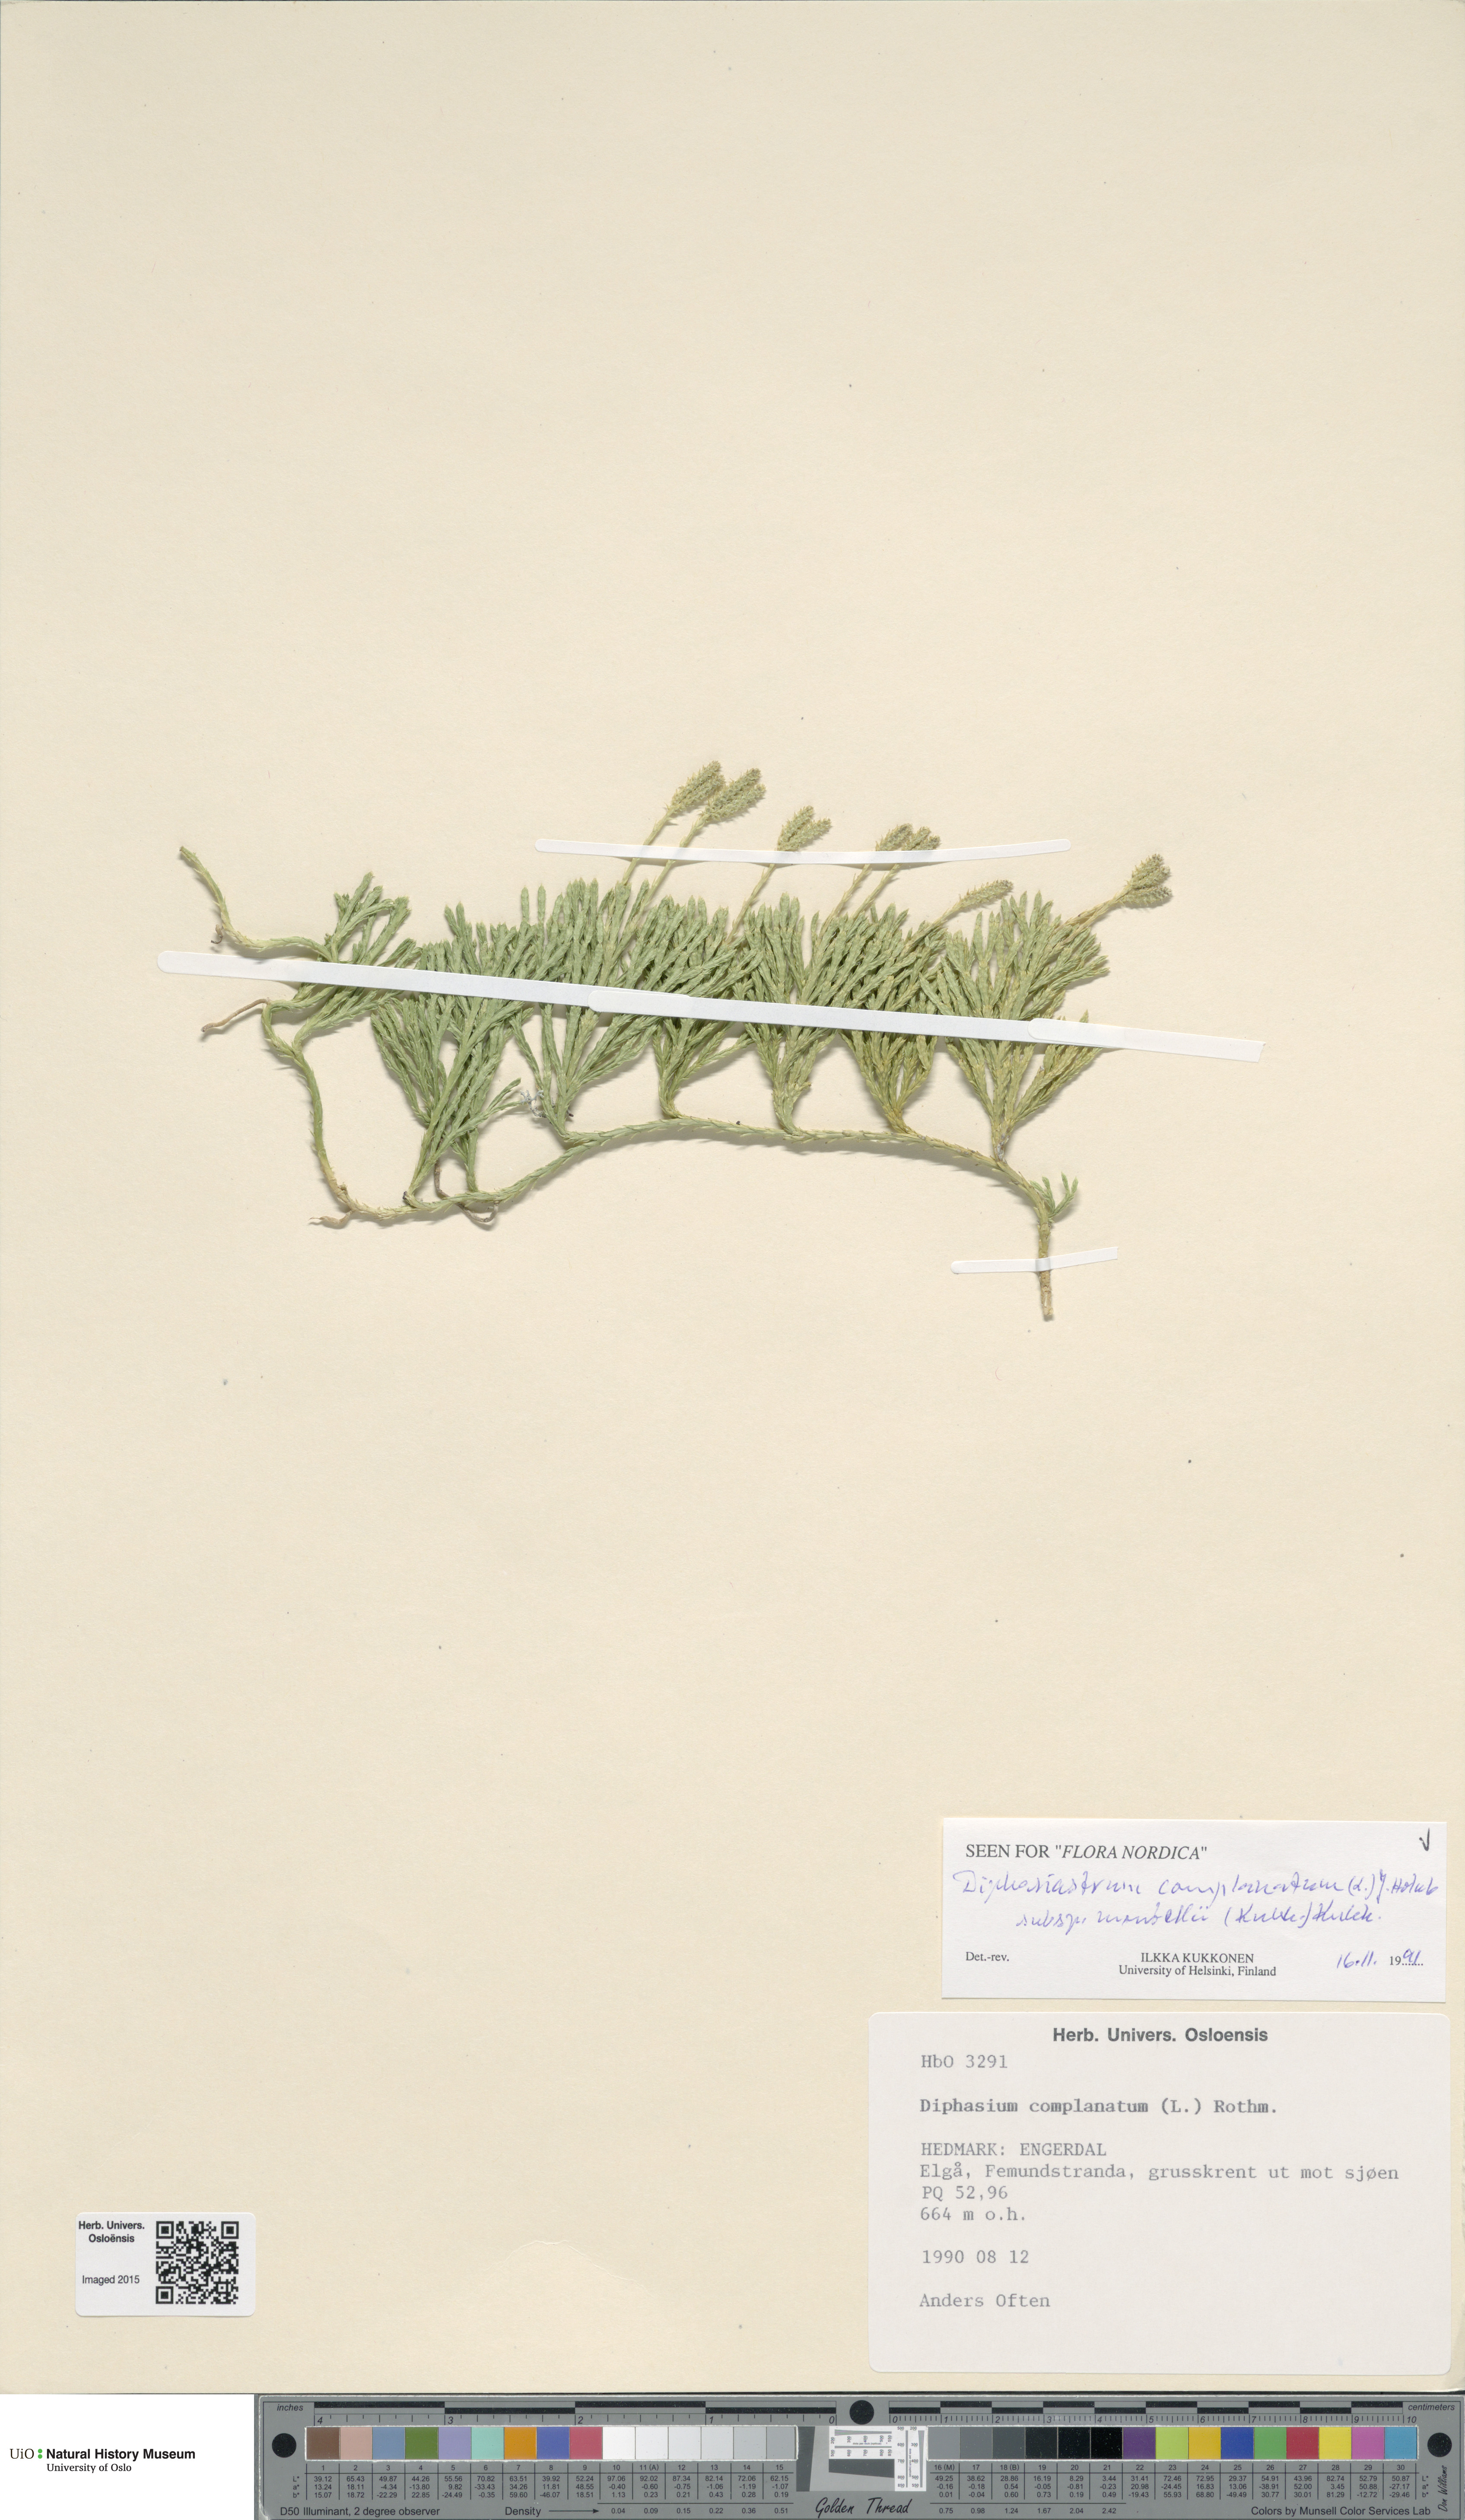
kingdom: Plantae
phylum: Tracheophyta
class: Lycopodiopsida
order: Lycopodiales
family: Lycopodiaceae
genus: Diphasiastrum
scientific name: Diphasiastrum complanatum
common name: Northern running-pine
